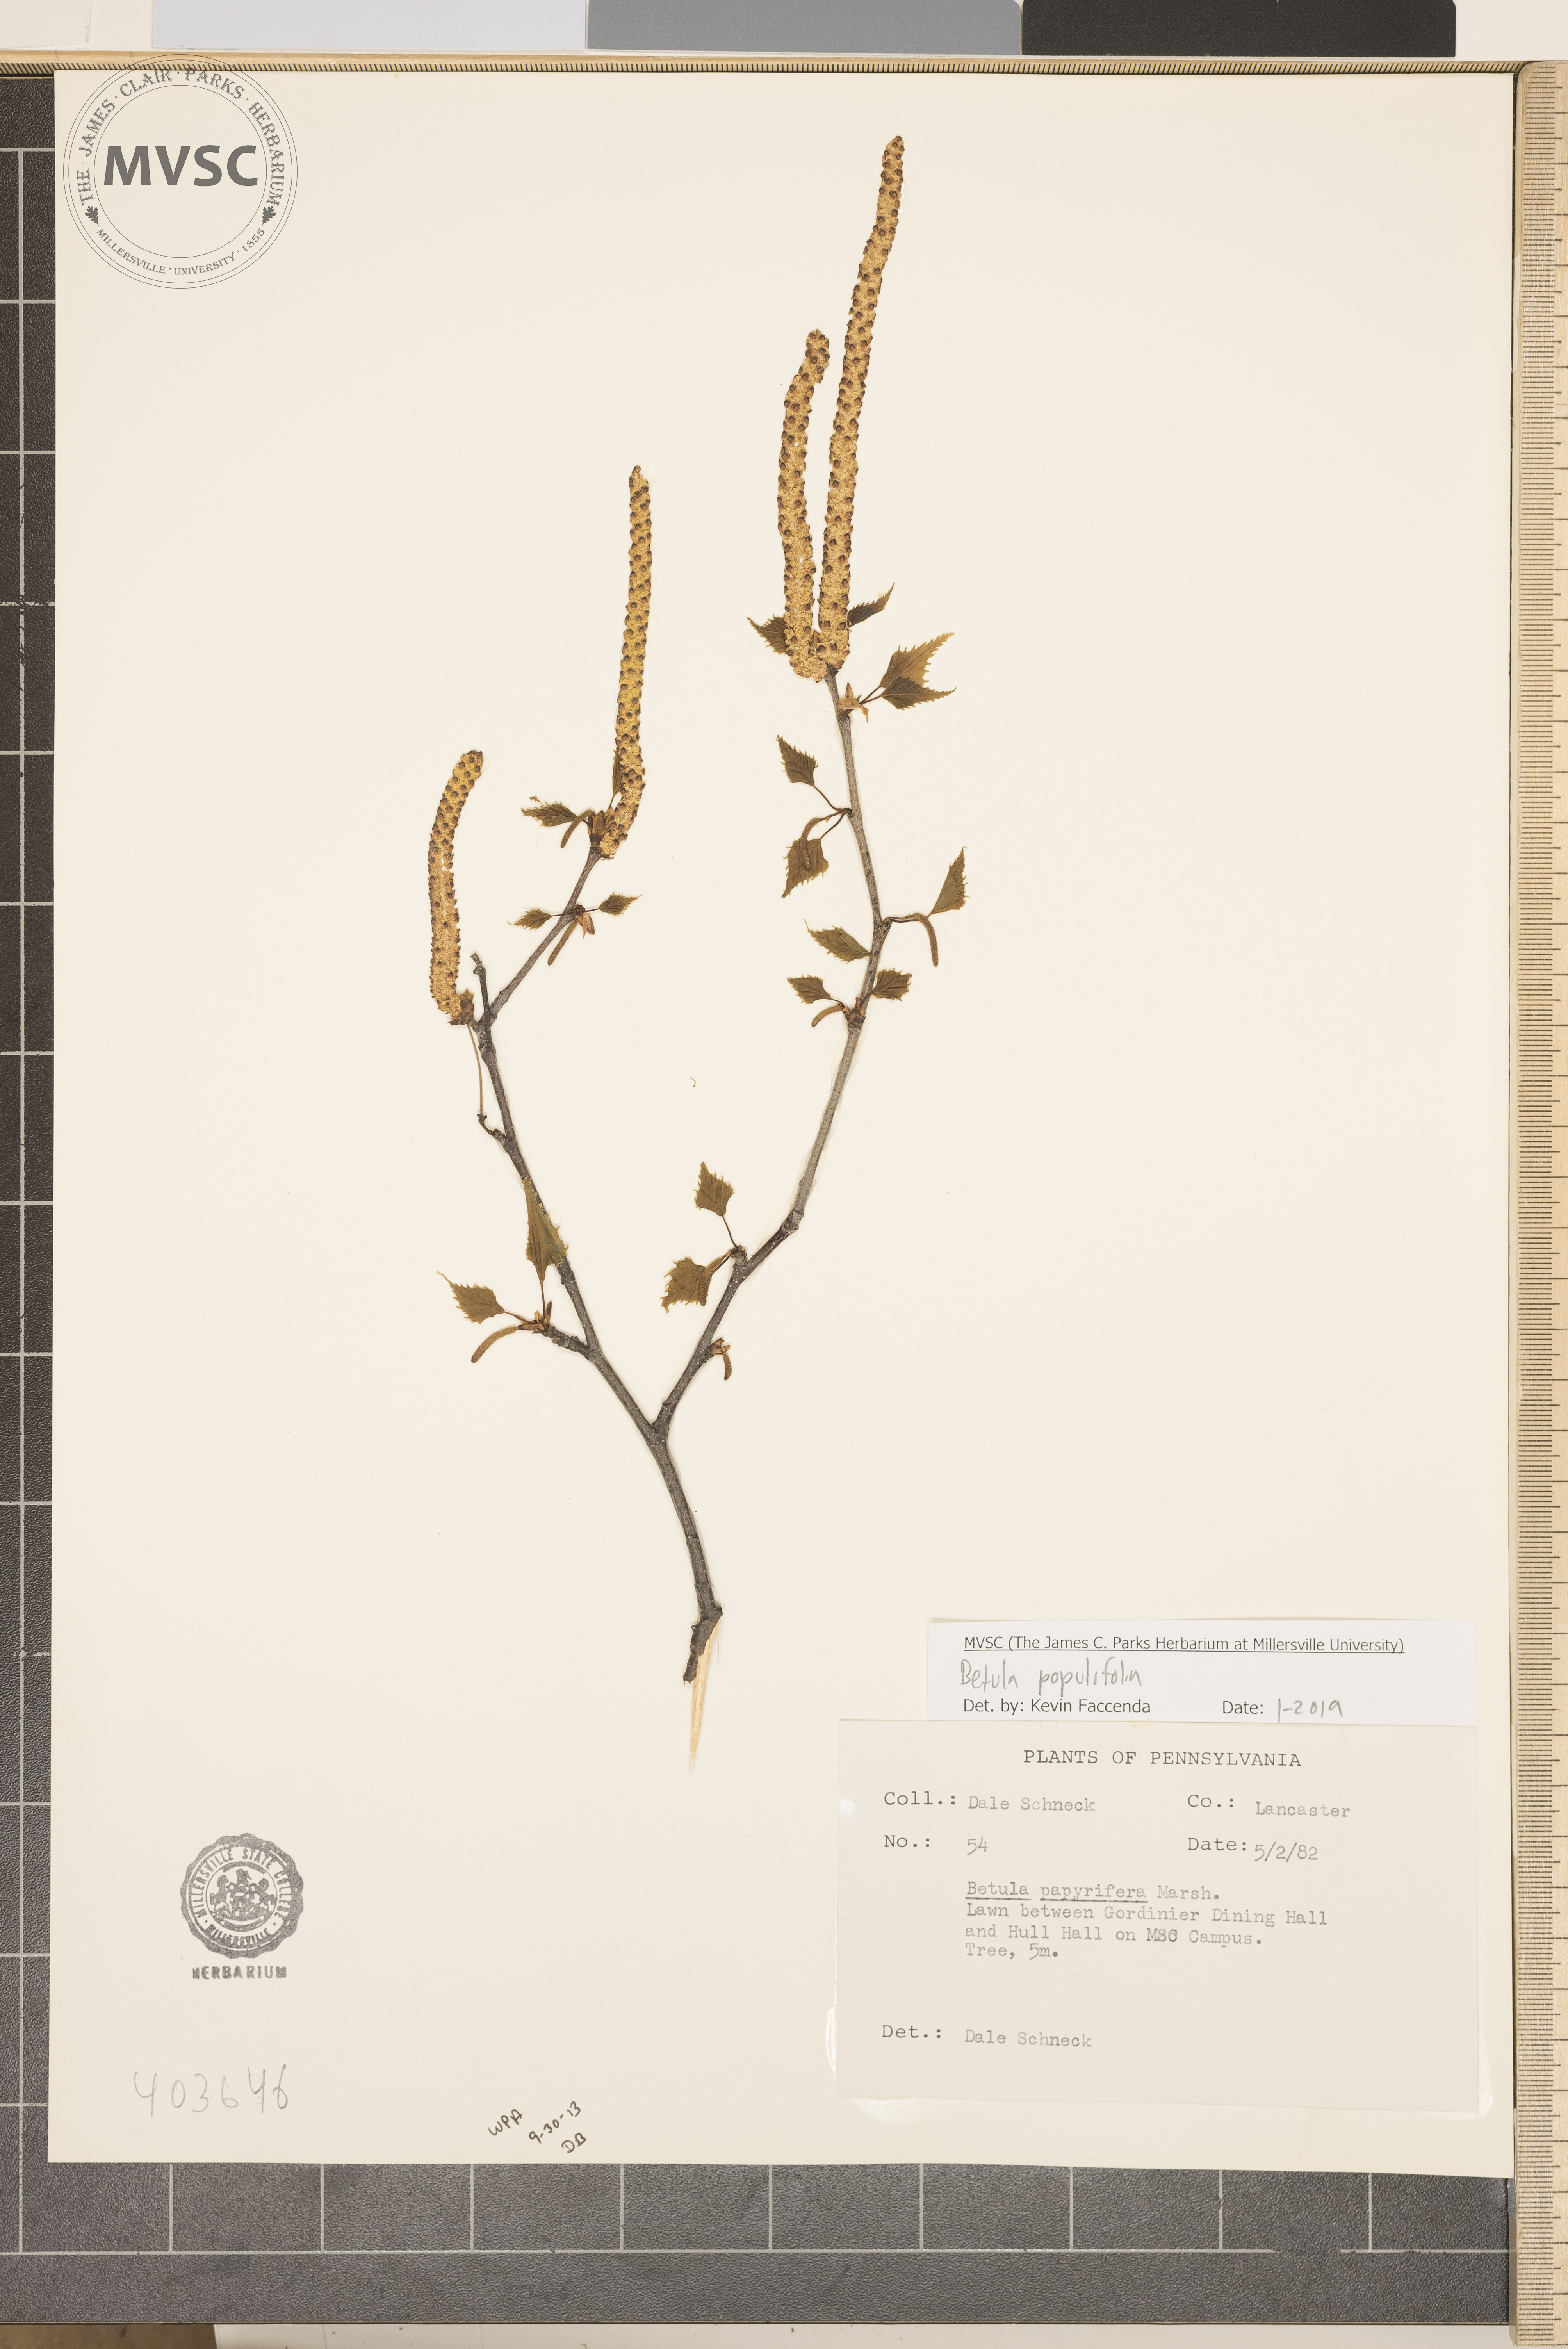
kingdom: Plantae
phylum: Tracheophyta
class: Magnoliopsida
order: Fagales
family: Betulaceae
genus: Betula
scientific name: Betula populifolia
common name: Fire birch
